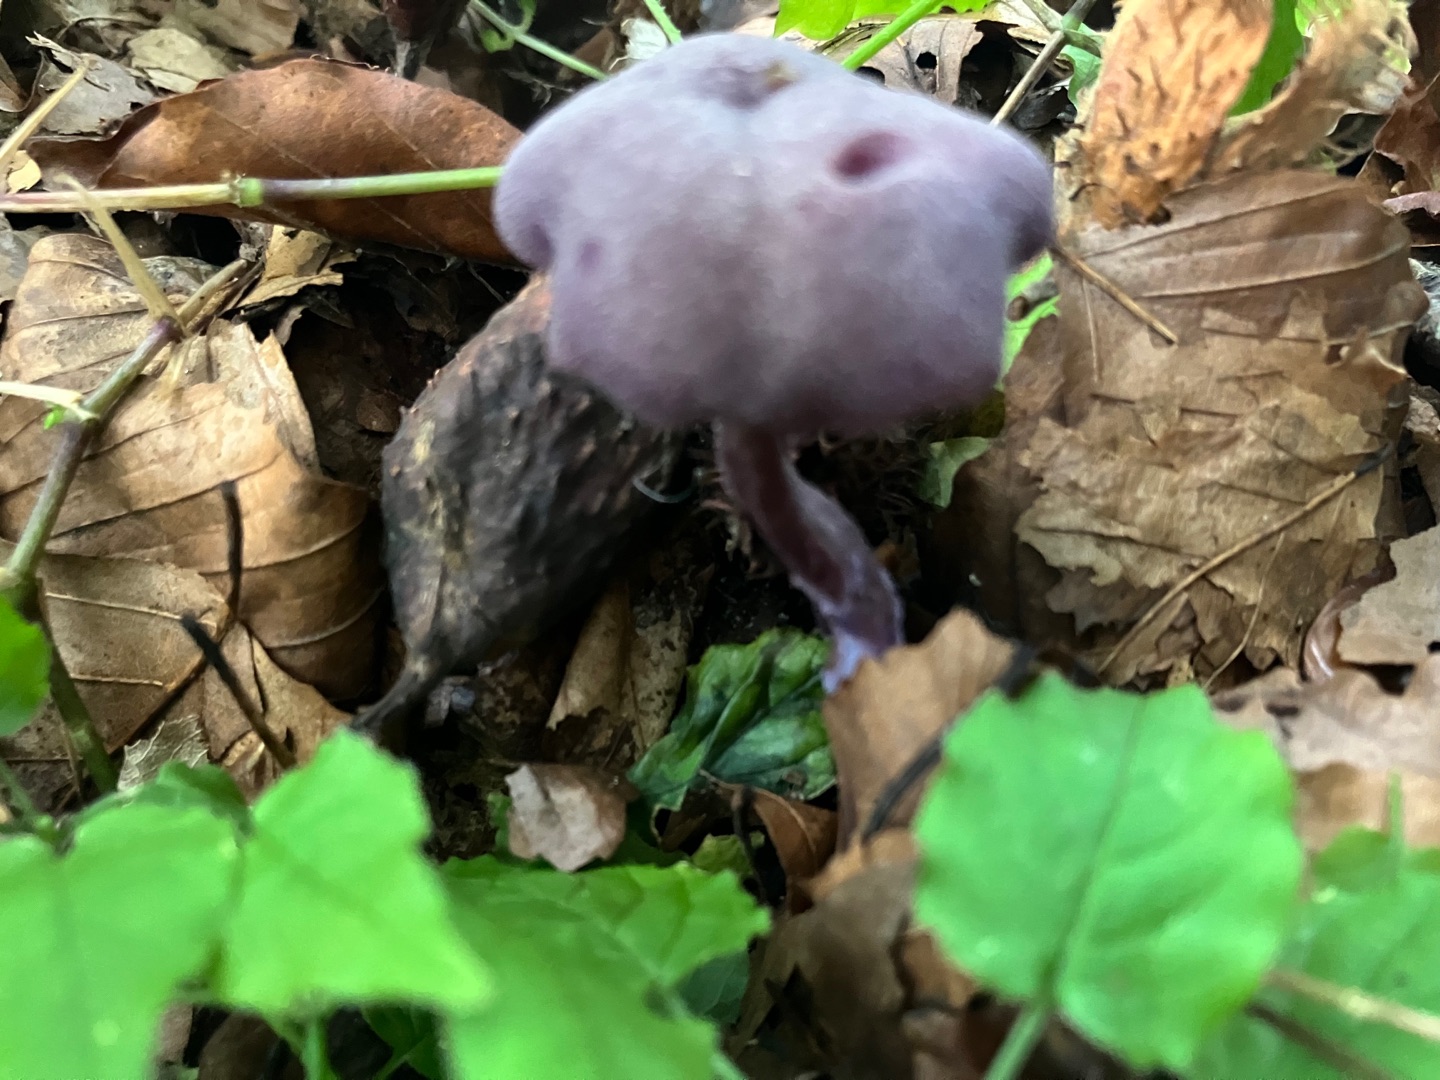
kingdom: Fungi
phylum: Basidiomycota
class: Agaricomycetes
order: Agaricales
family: Hydnangiaceae
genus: Laccaria
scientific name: Laccaria amethystina
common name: Violet ametysthat
